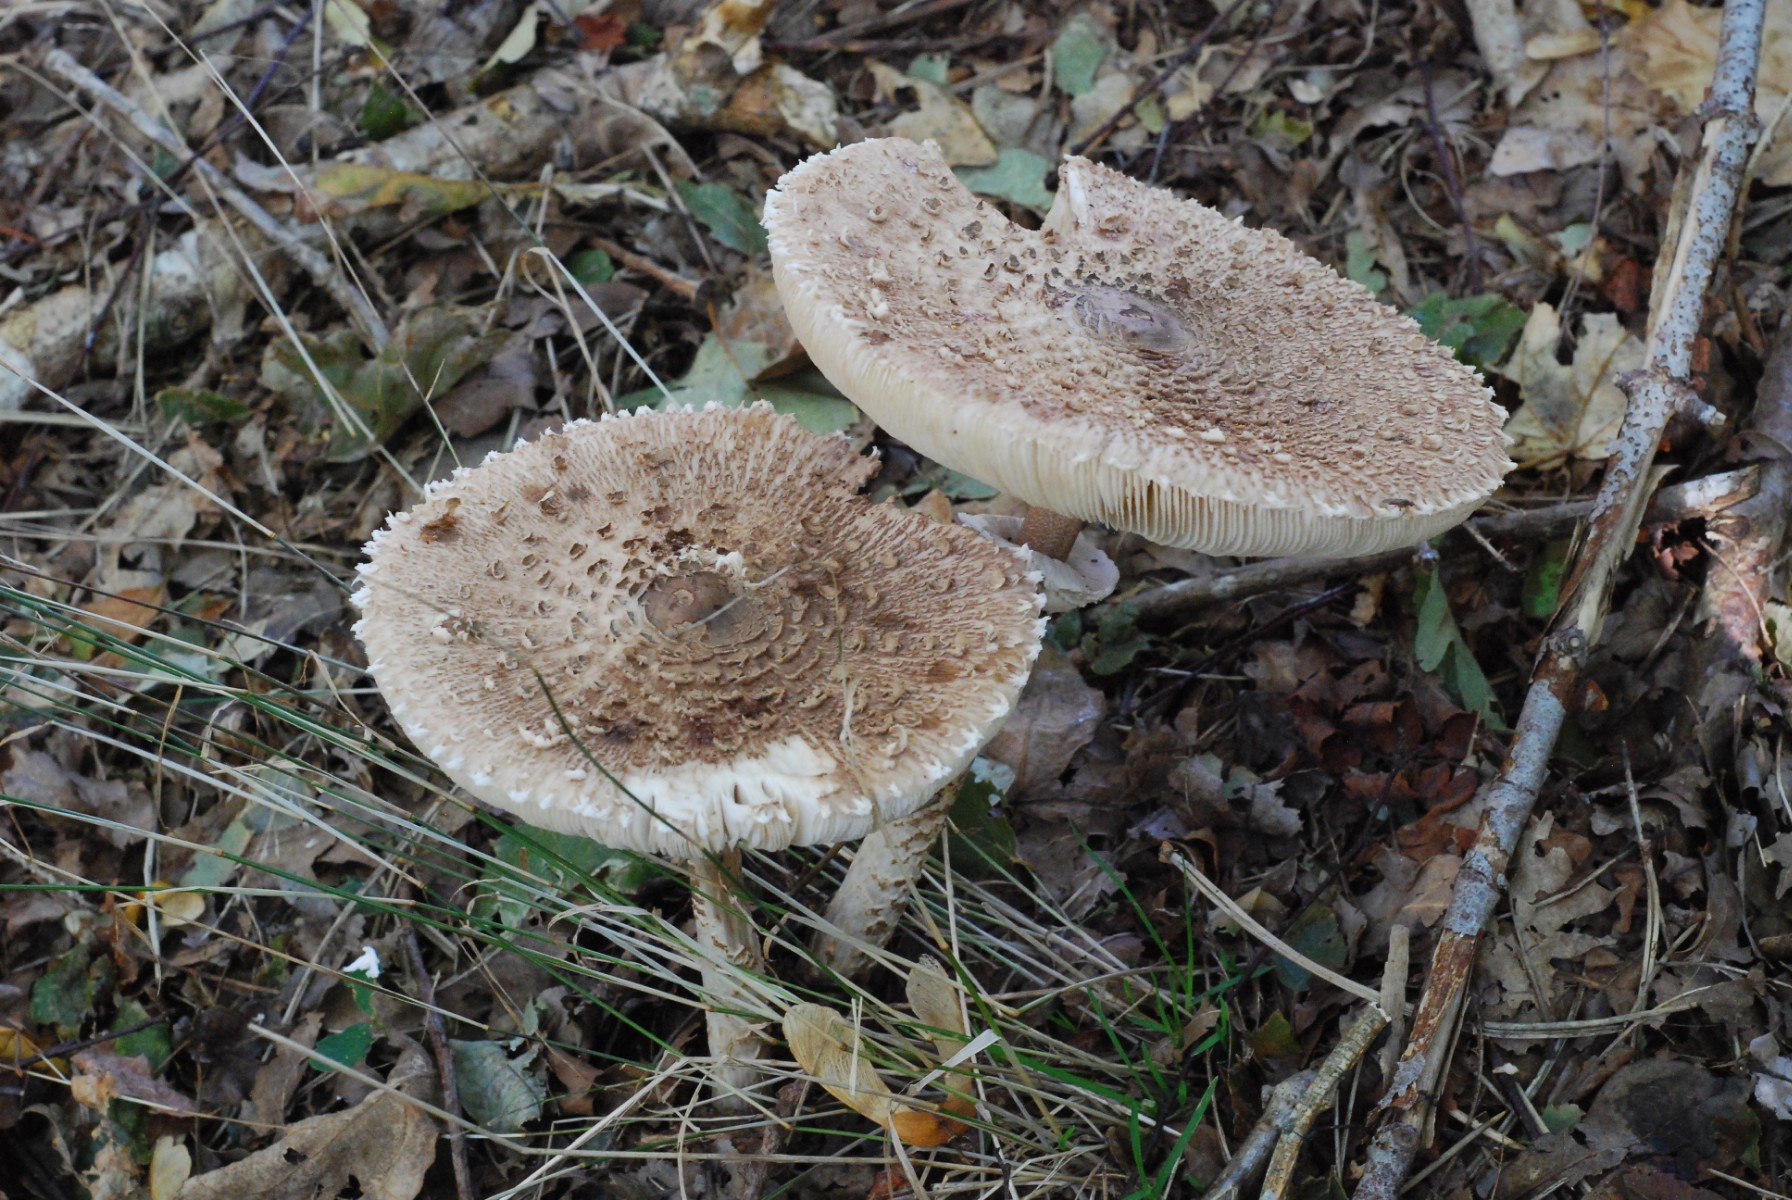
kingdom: Fungi
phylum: Basidiomycota
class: Agaricomycetes
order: Agaricales
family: Agaricaceae
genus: Macrolepiota
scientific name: Macrolepiota procera
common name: stor kæmpeparasolhat
